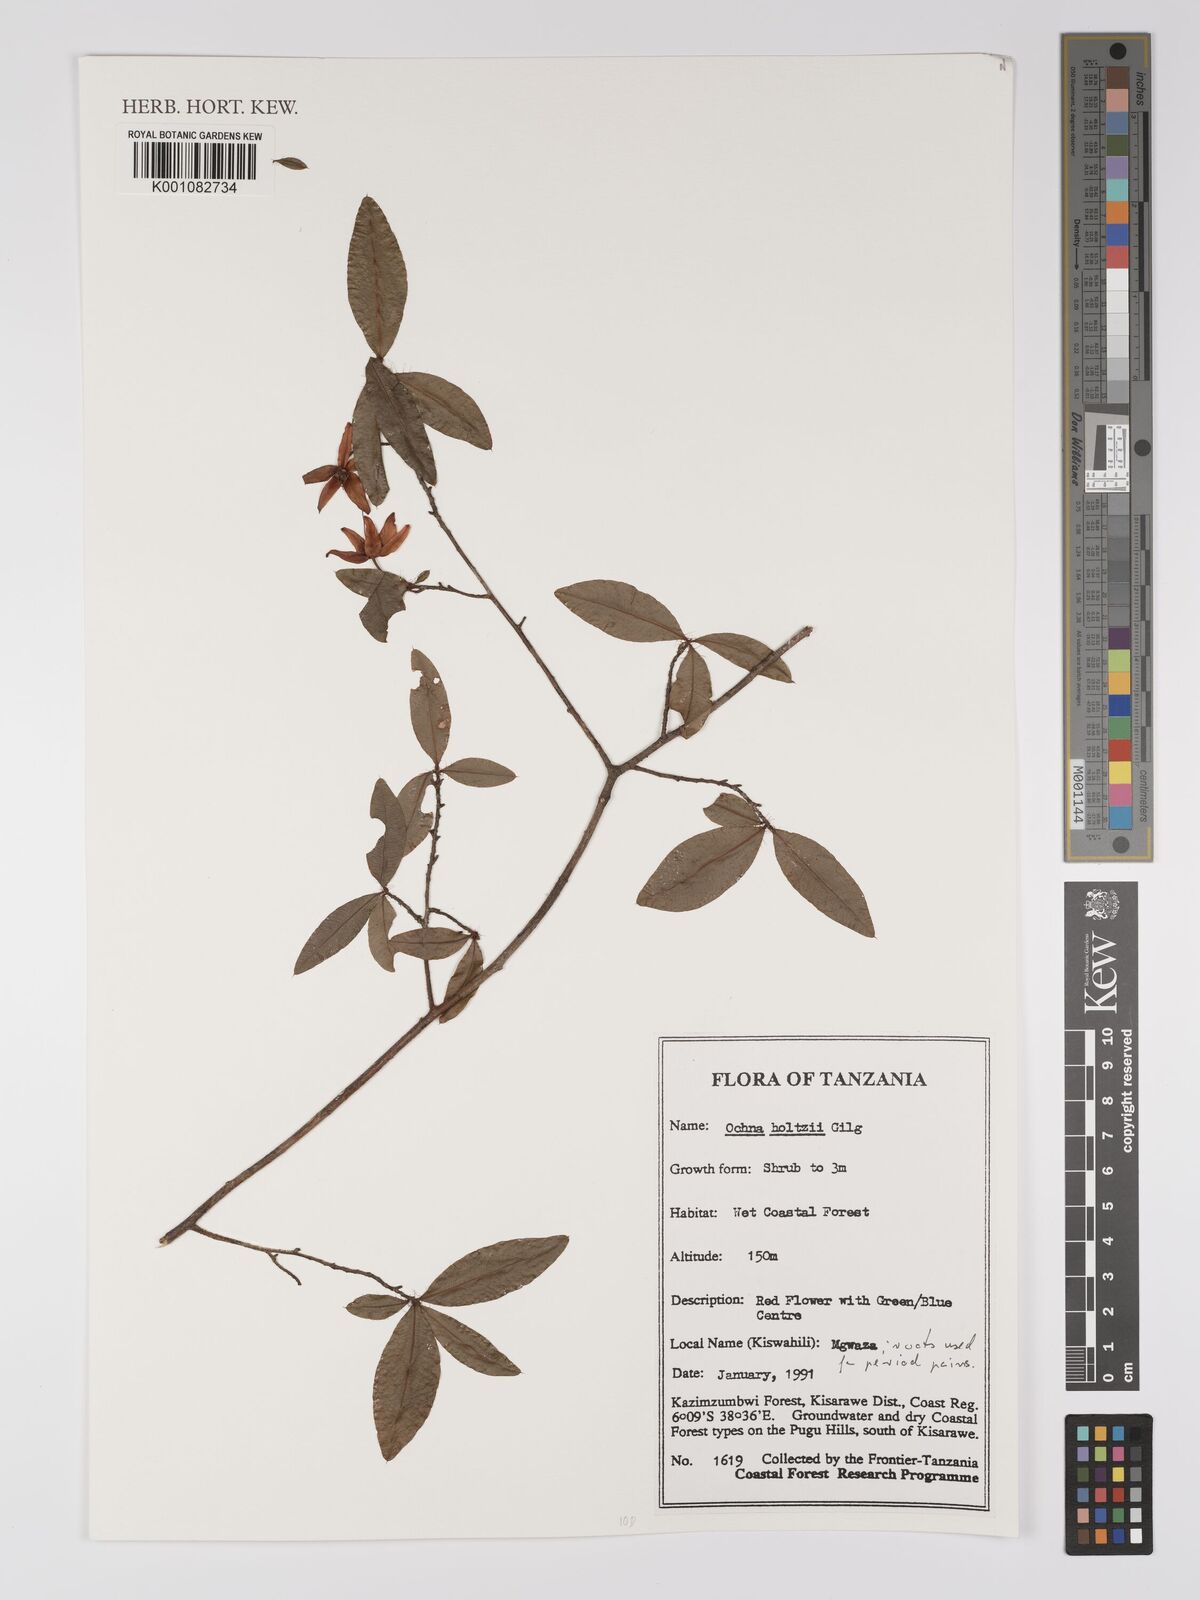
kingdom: Plantae
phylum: Tracheophyta
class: Magnoliopsida
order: Malpighiales
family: Ochnaceae
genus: Ochna
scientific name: Ochna holtzii
